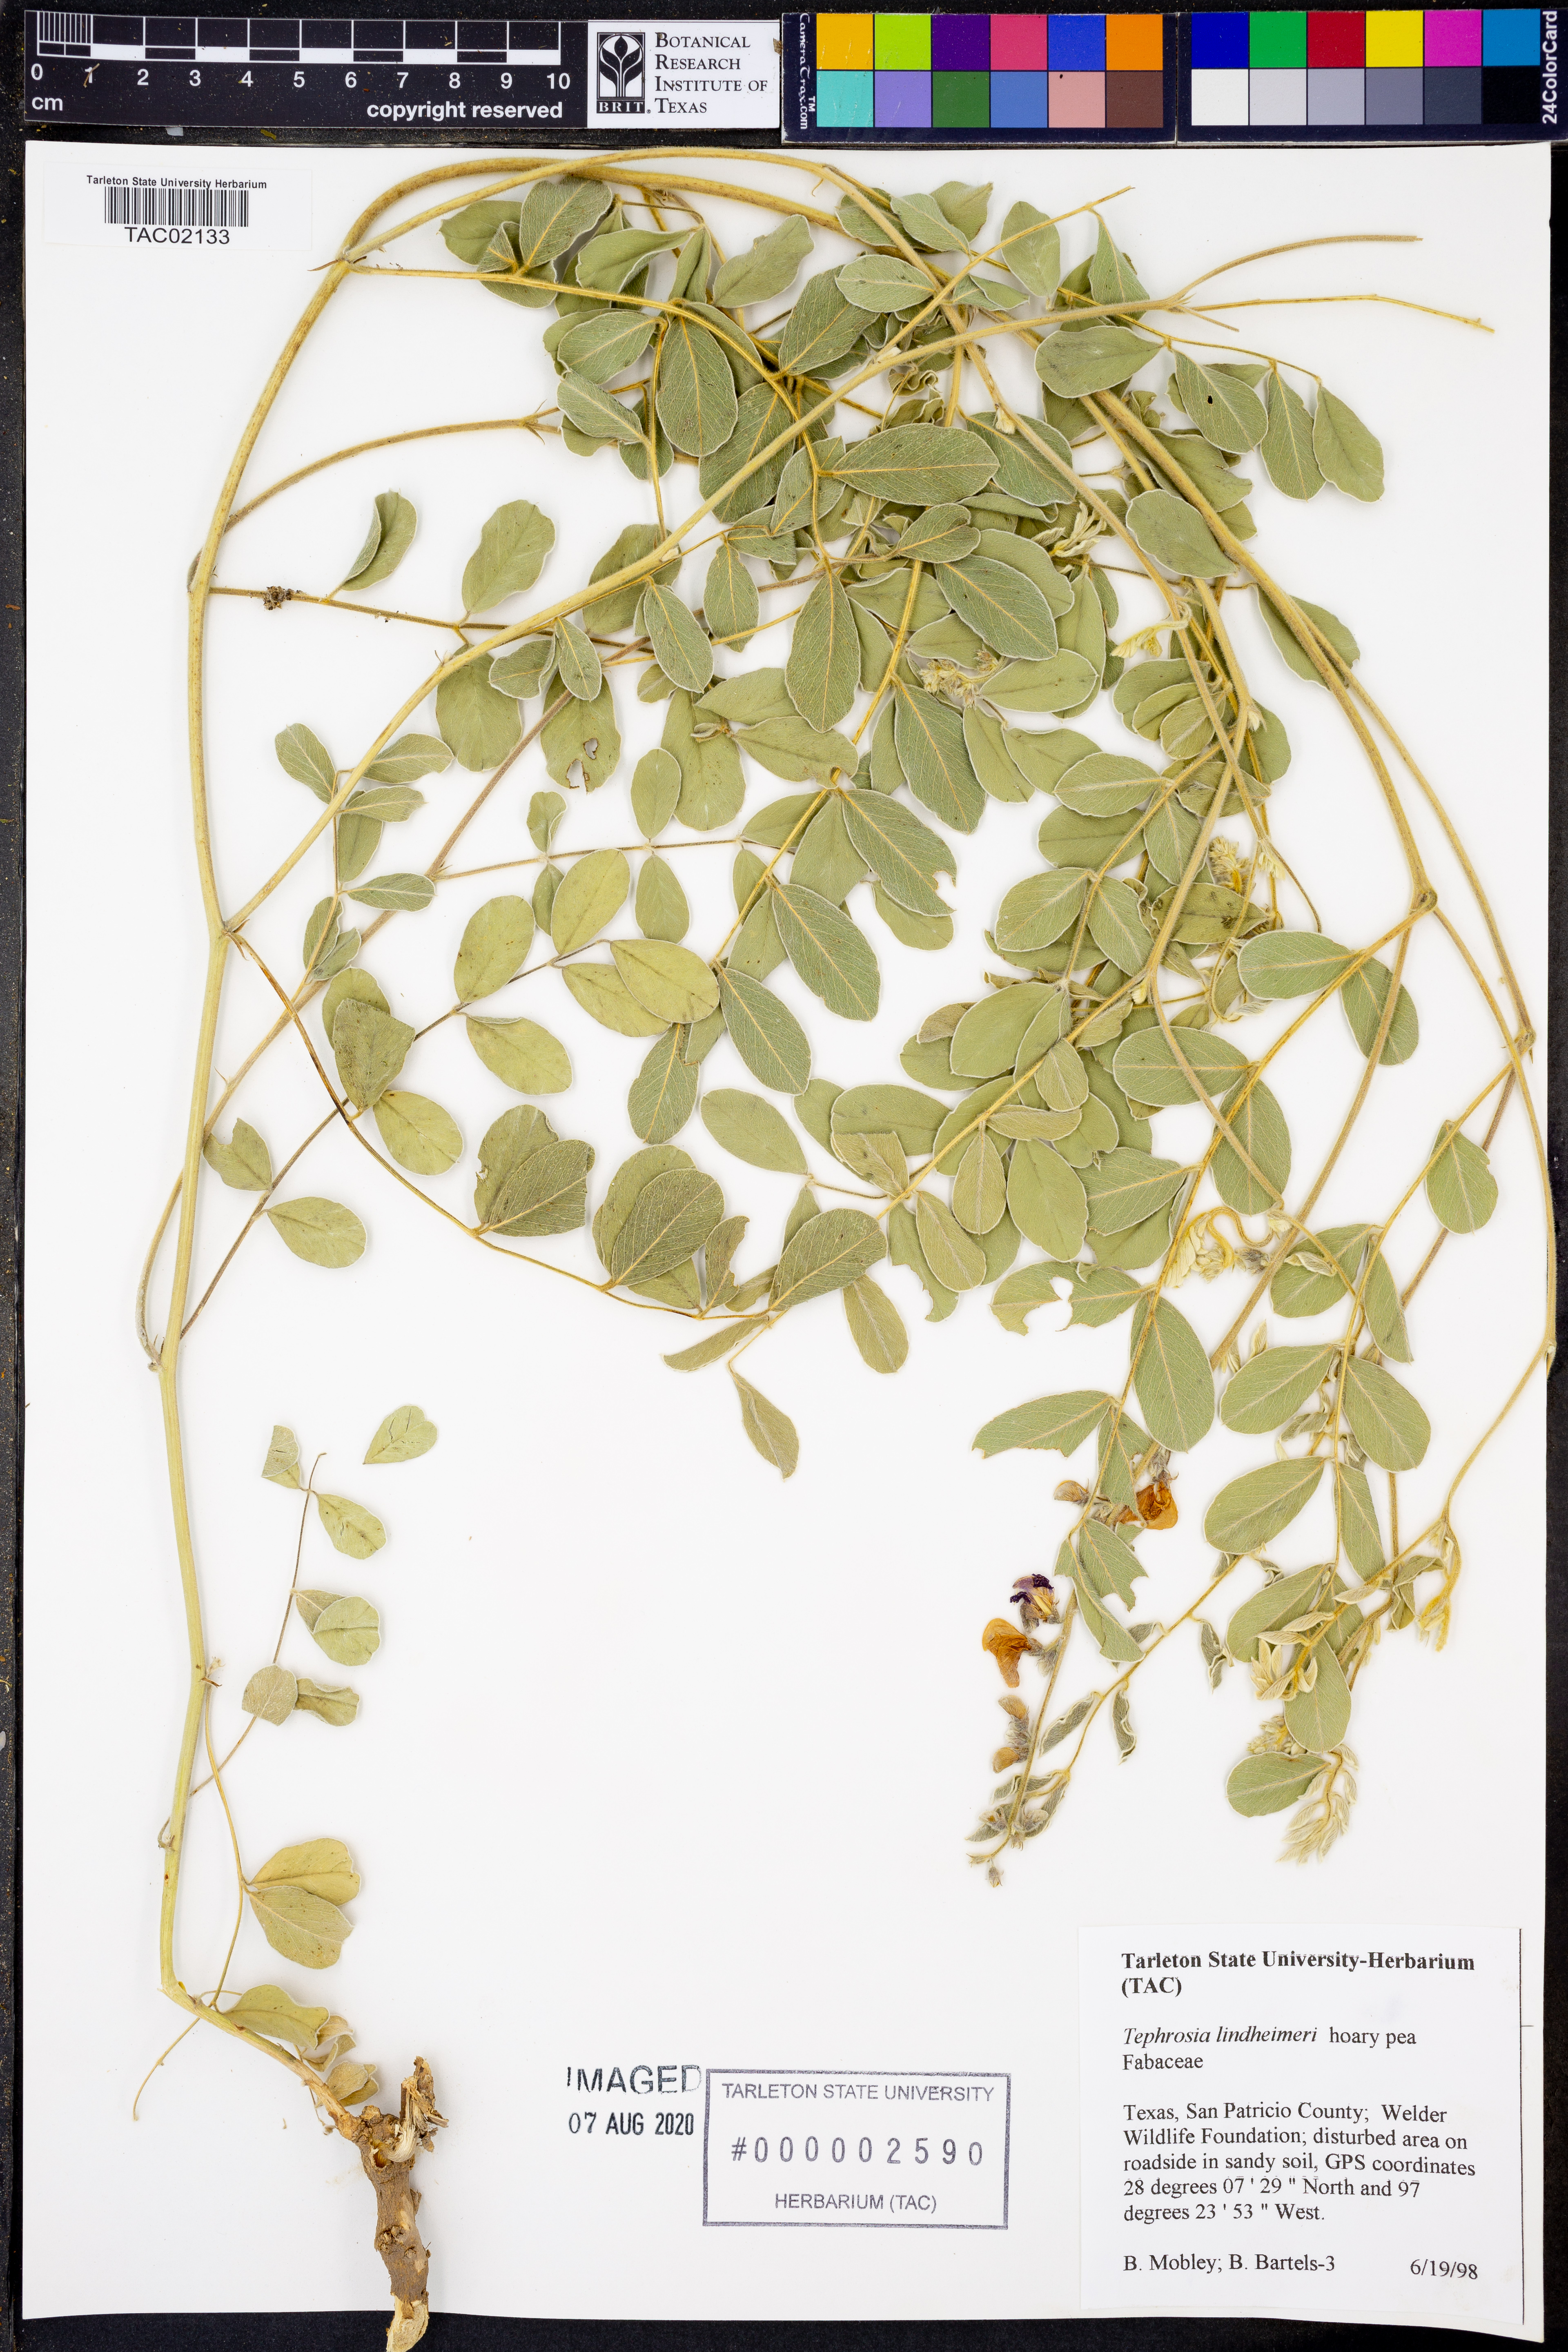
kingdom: Plantae
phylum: Tracheophyta
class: Magnoliopsida
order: Fabales
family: Fabaceae
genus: Tephrosia
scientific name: Tephrosia lindheimeri
